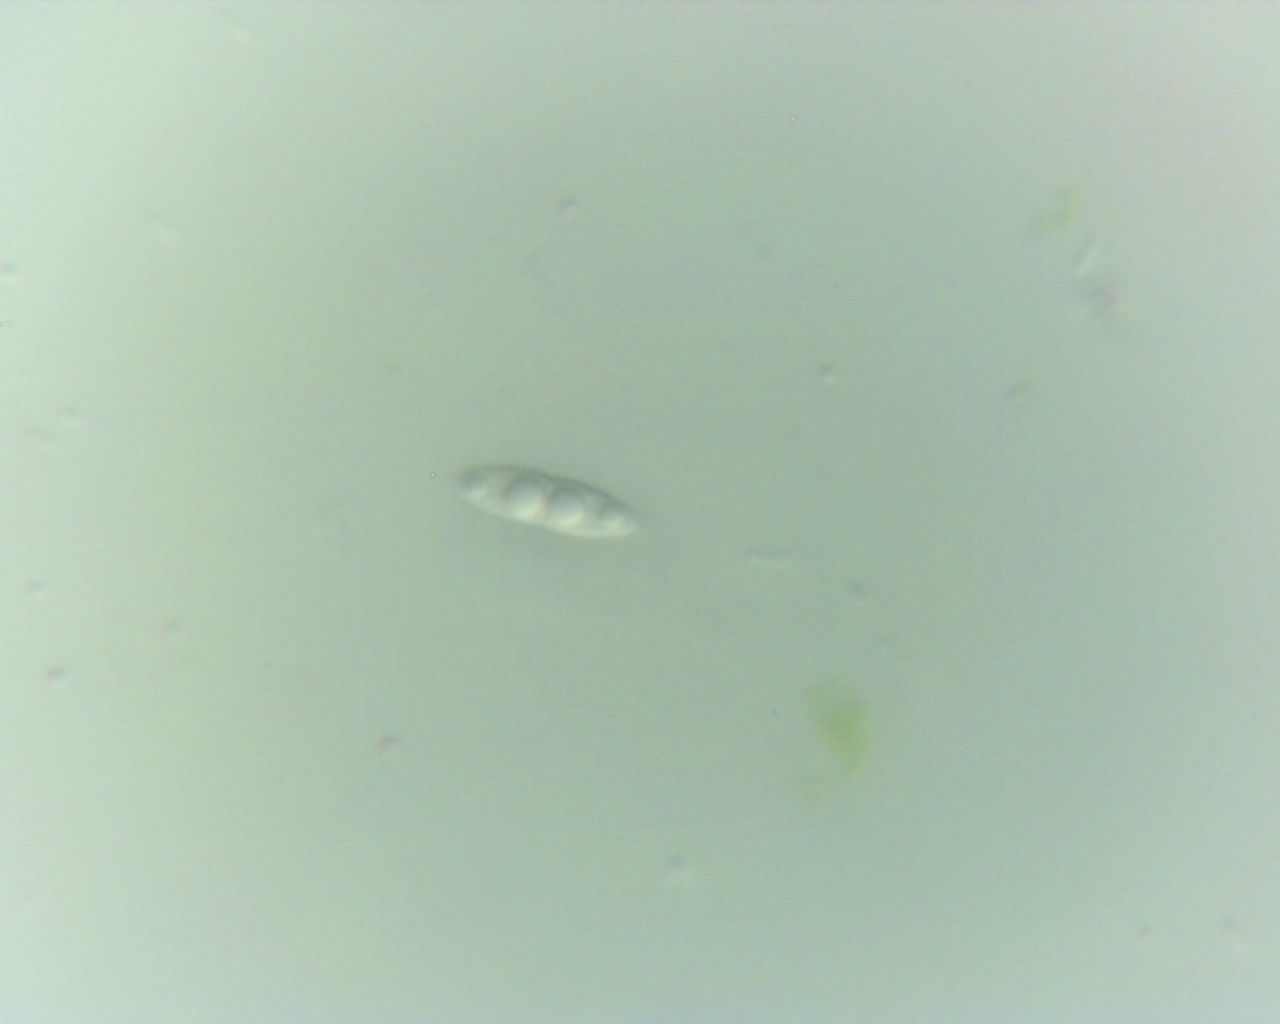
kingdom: Fungi
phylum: Ascomycota
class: Sordariomycetes
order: Diaporthales
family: Diaporthaceae
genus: Diaporthe
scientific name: Diaporthe circumscripta
